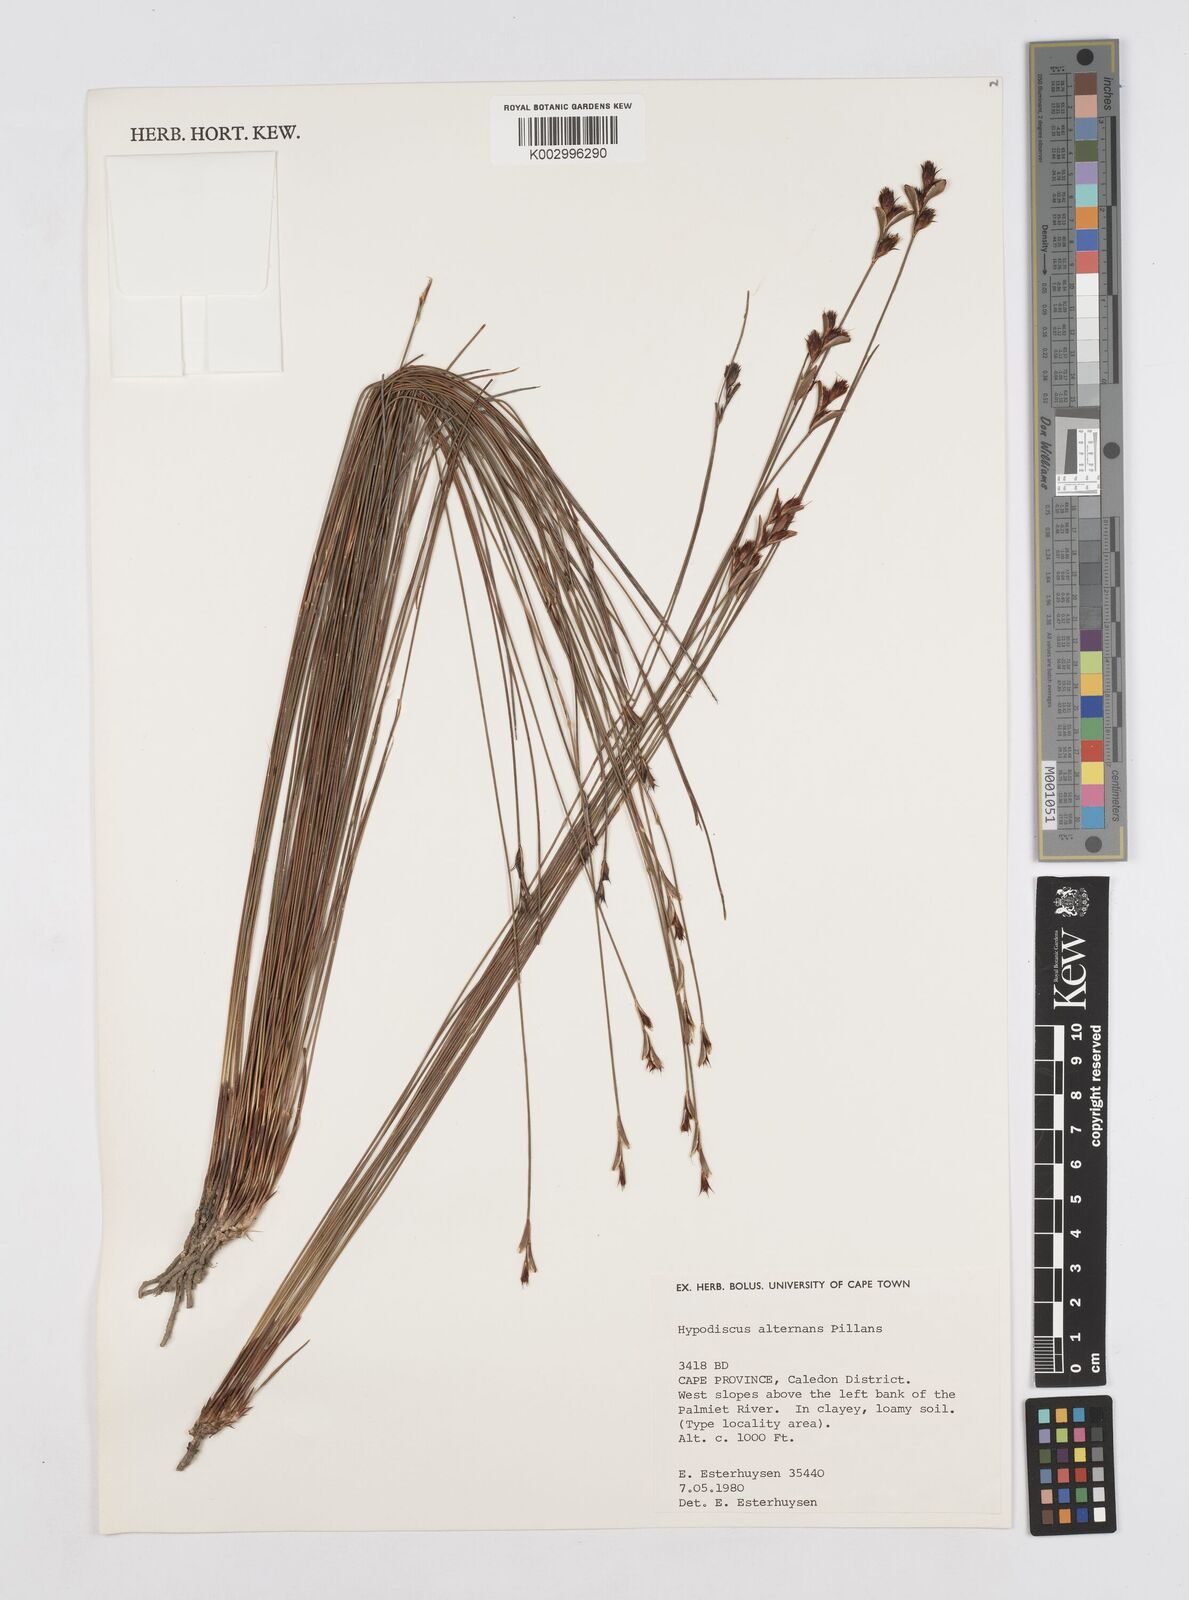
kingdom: Plantae
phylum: Tracheophyta
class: Liliopsida
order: Poales
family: Restionaceae
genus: Hypodiscus
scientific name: Hypodiscus alternans
